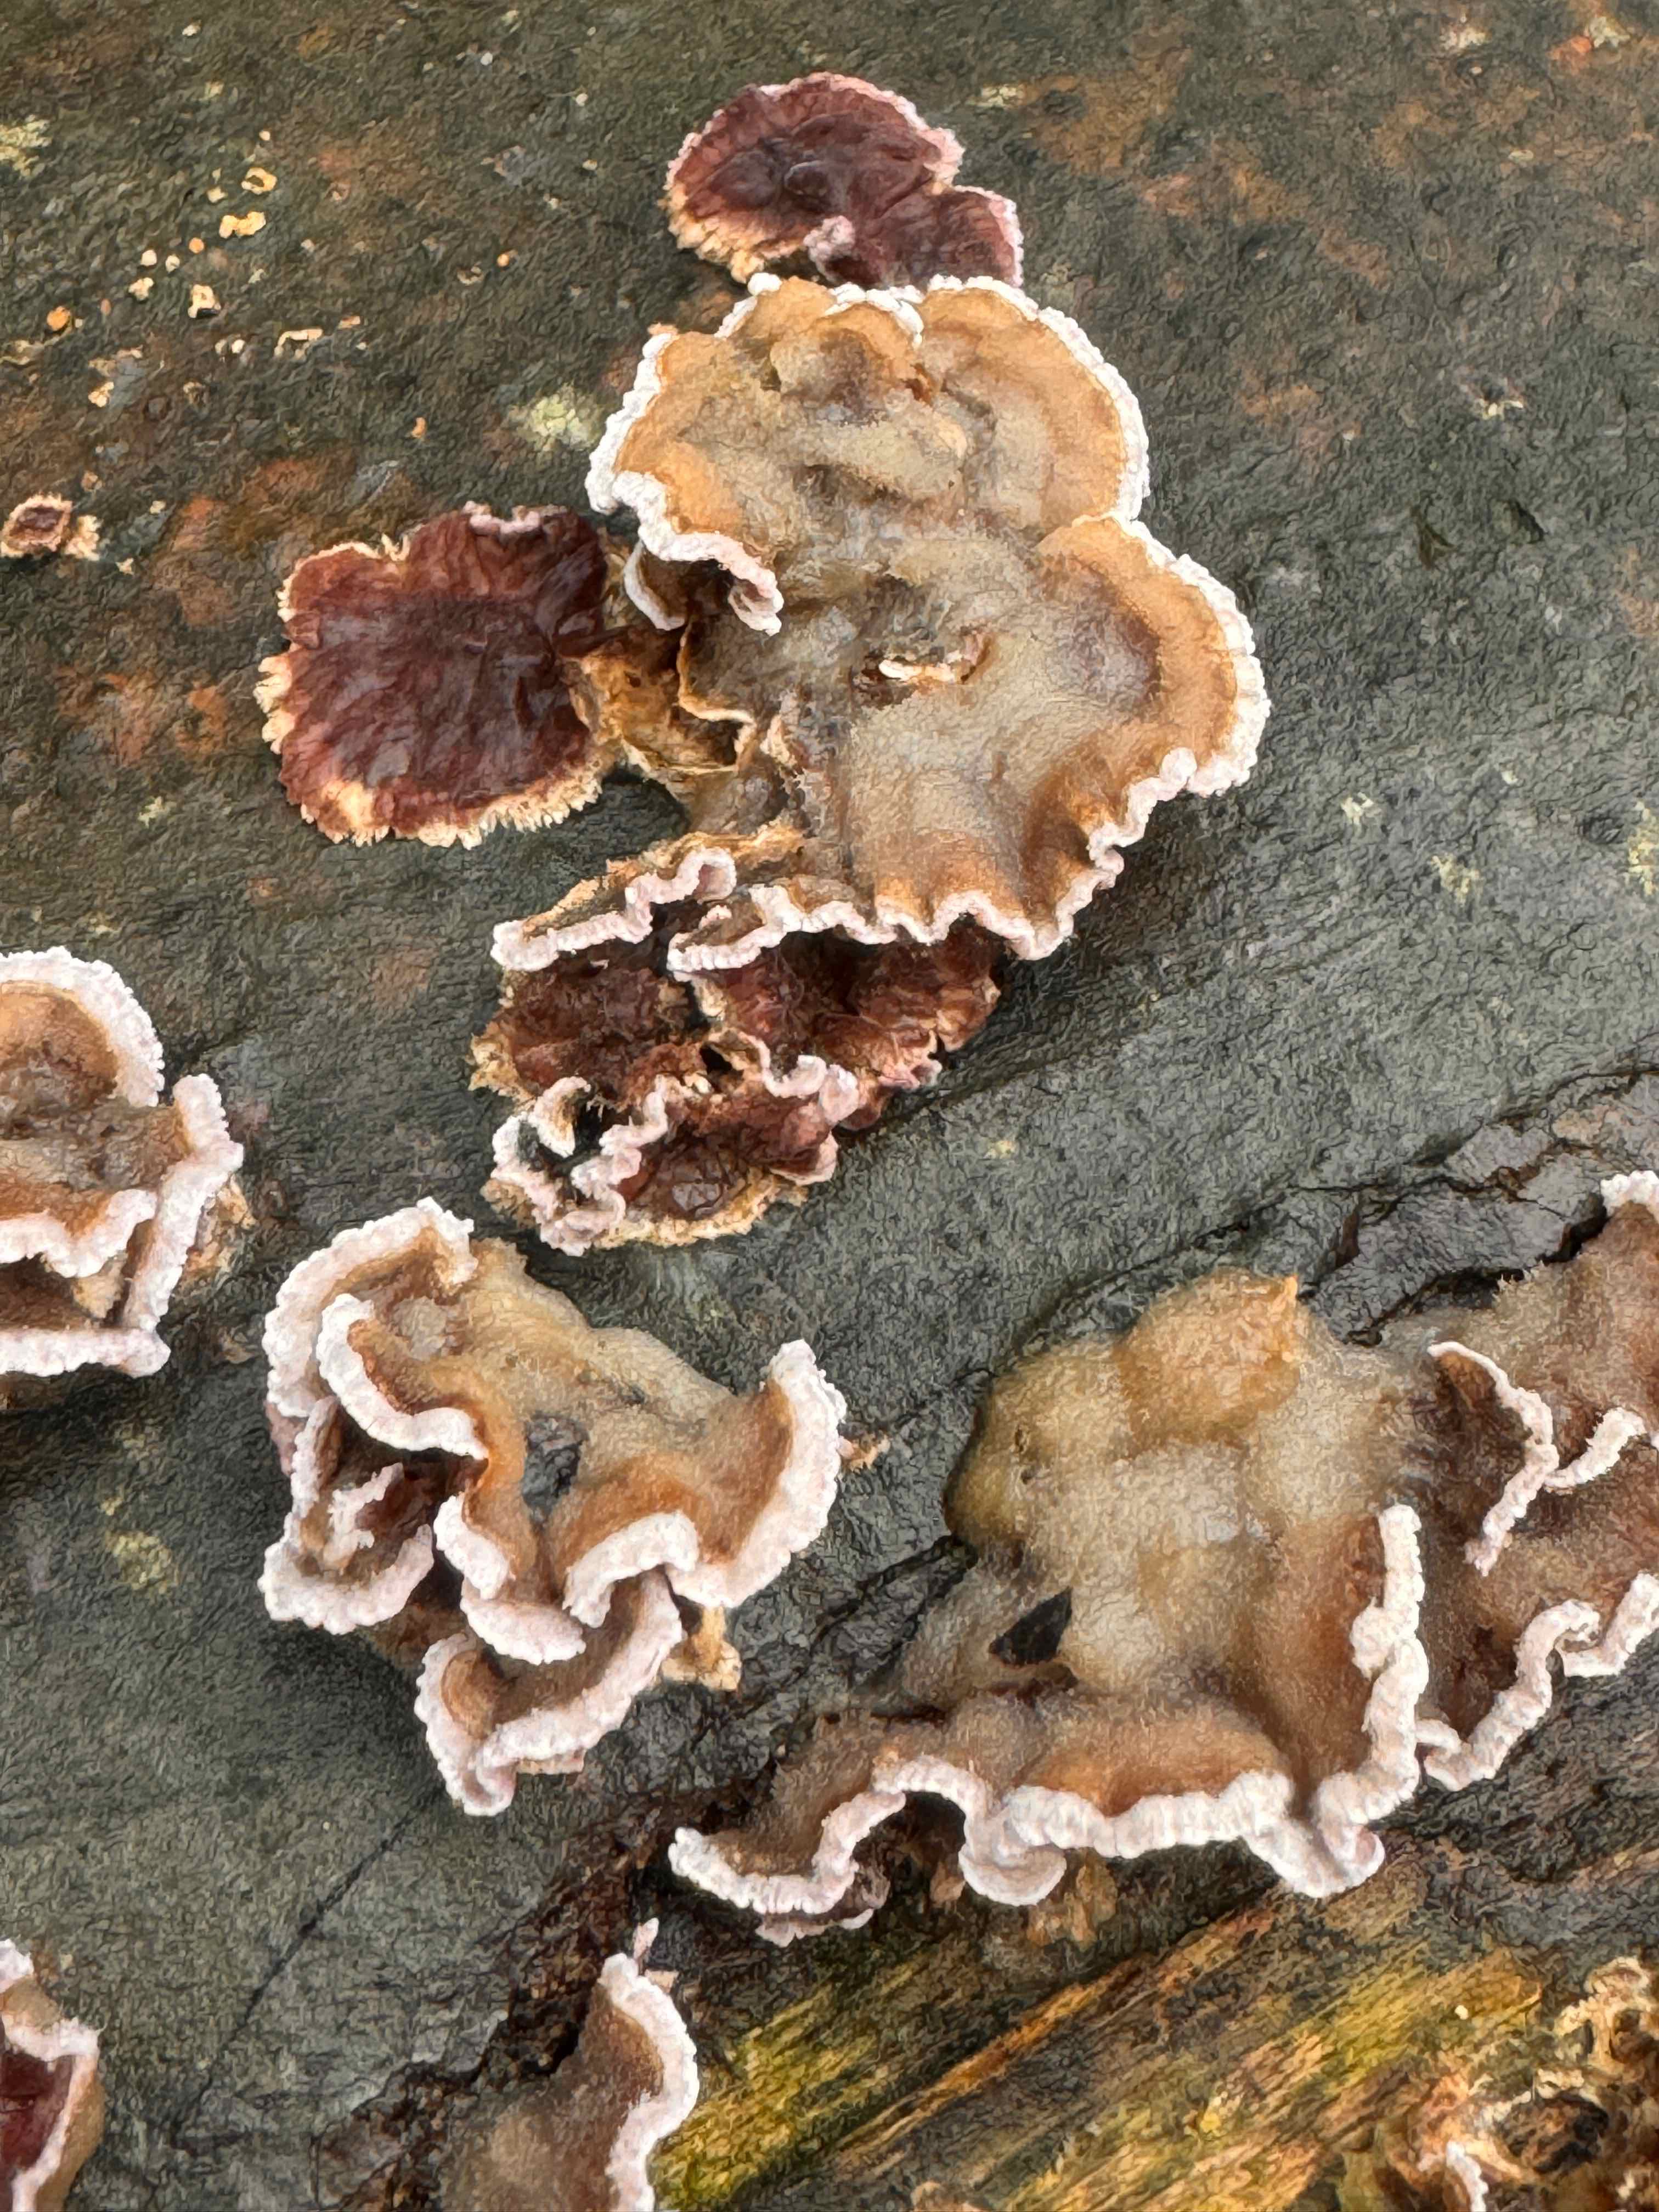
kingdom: Fungi
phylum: Basidiomycota
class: Agaricomycetes
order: Agaricales
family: Cyphellaceae
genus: Chondrostereum
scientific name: Chondrostereum purpureum
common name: purpurlædersvamp
